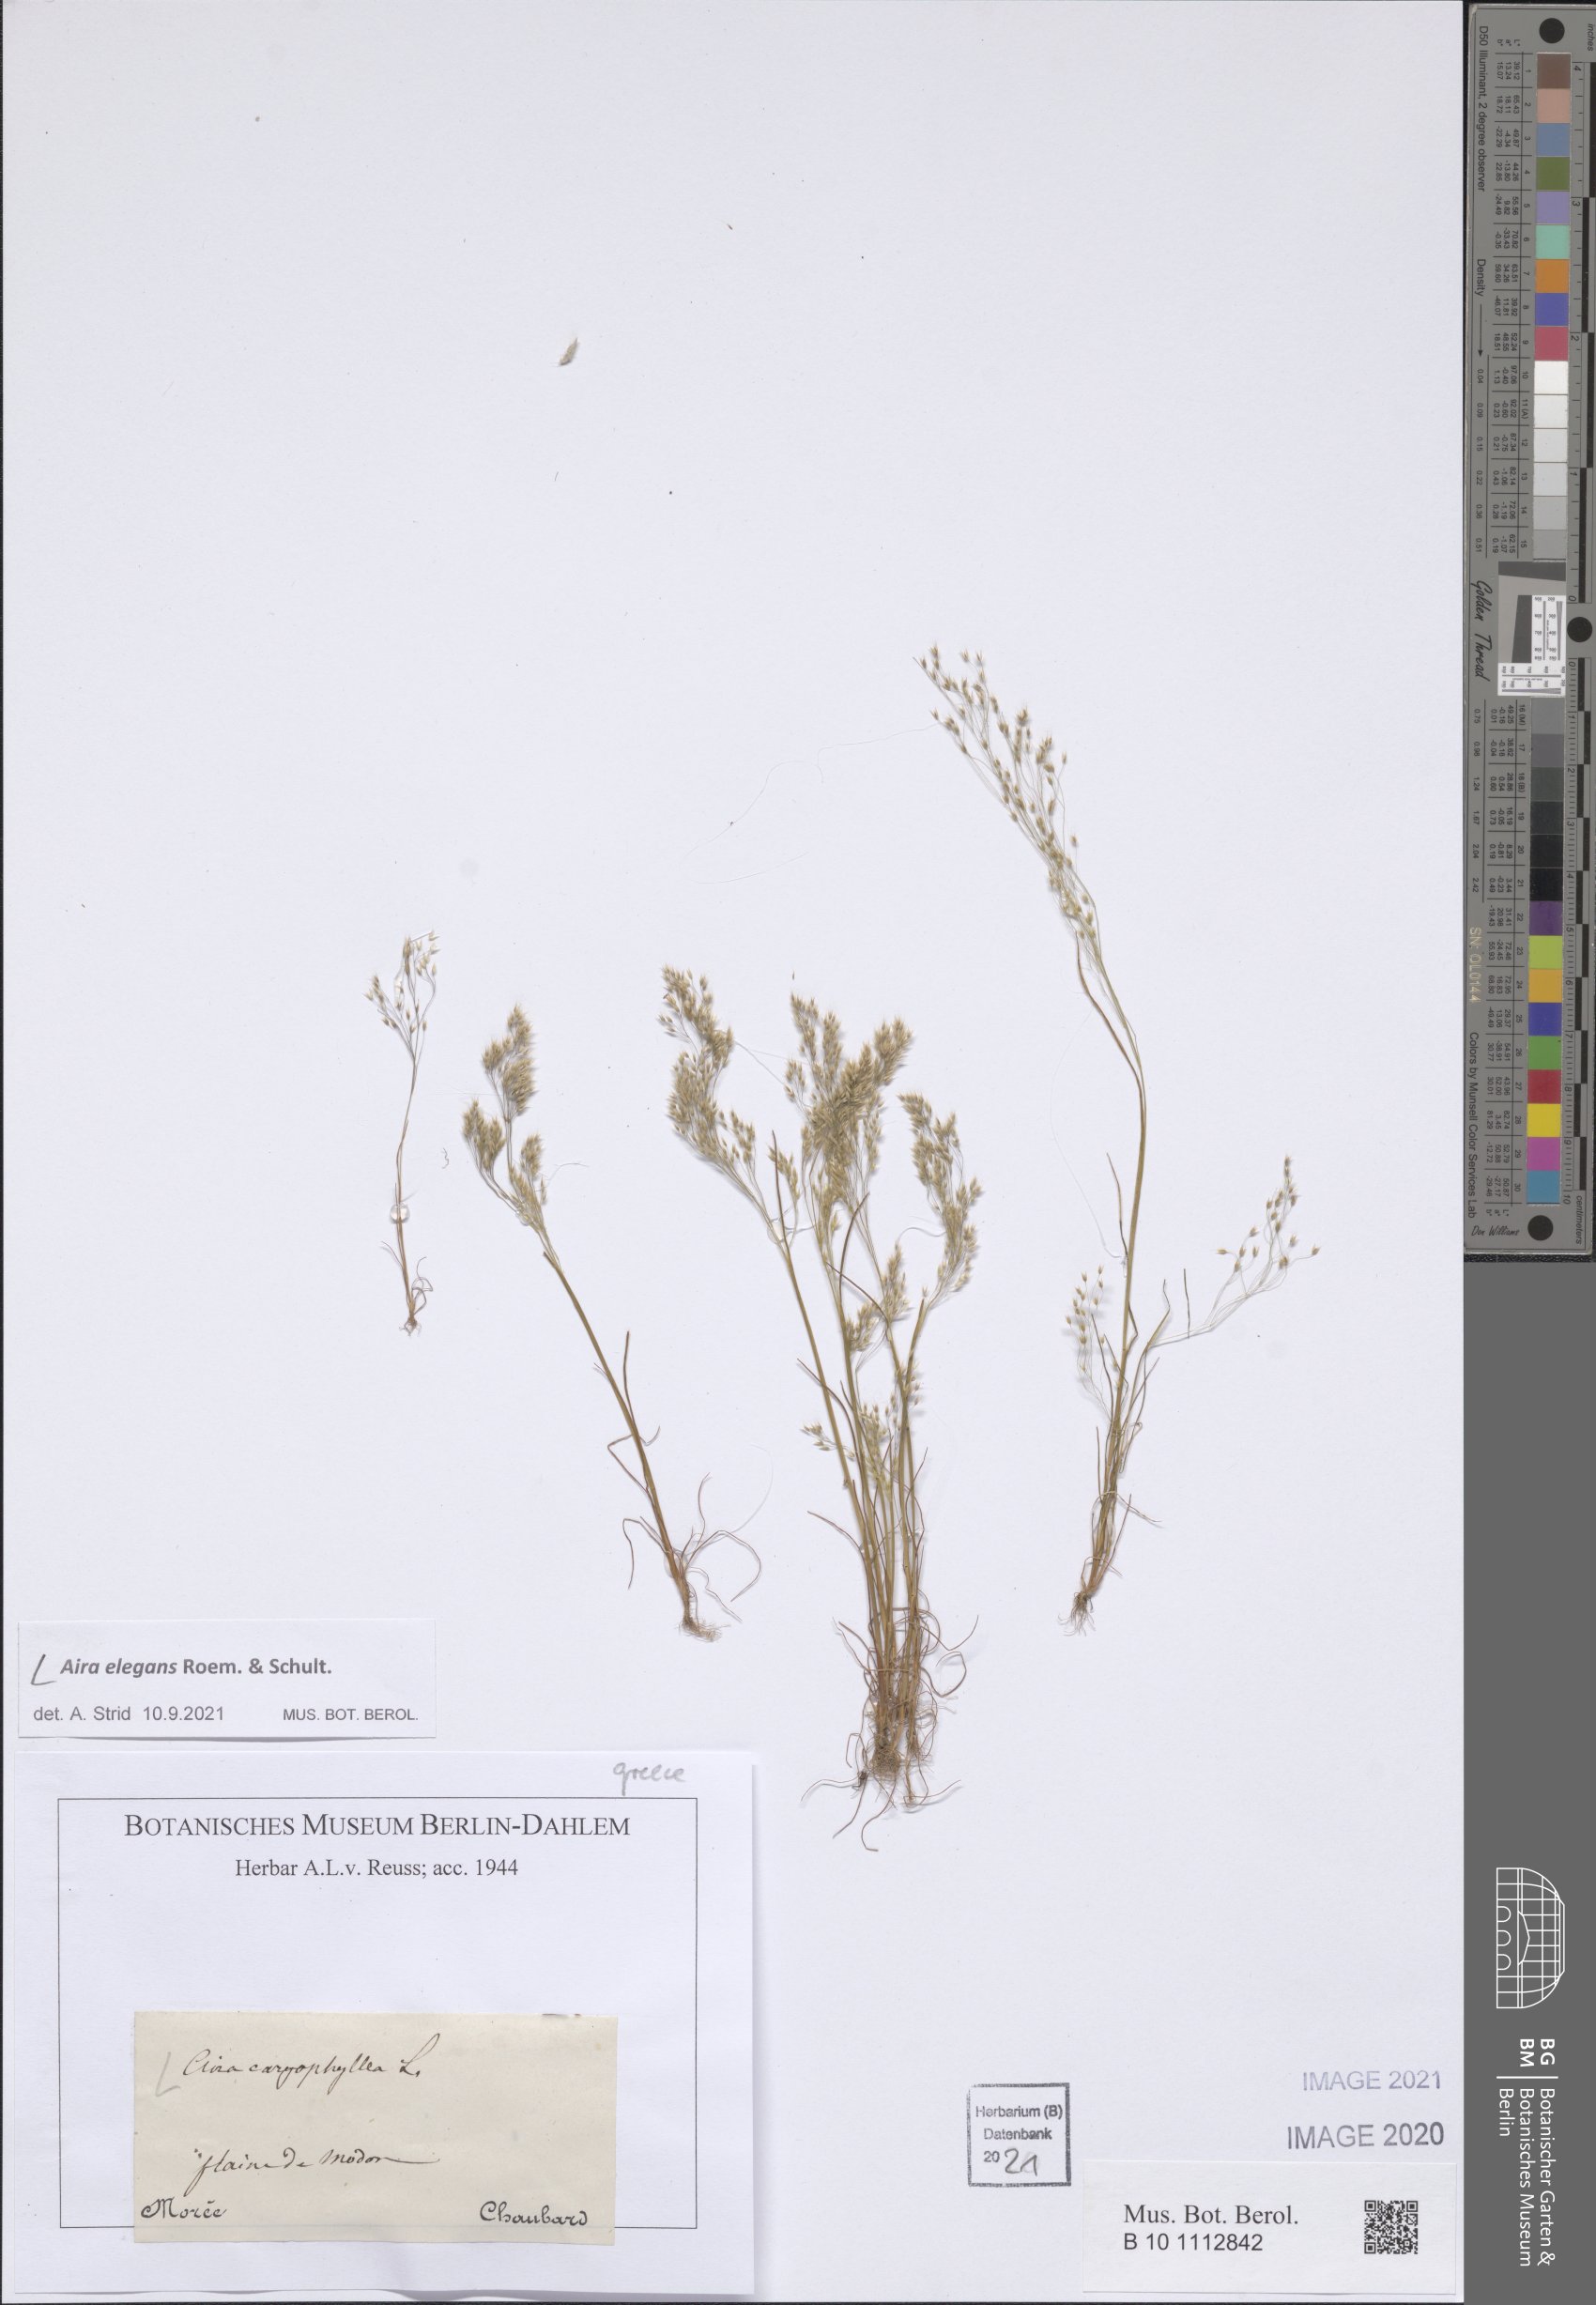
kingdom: Plantae
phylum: Tracheophyta
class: Liliopsida
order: Poales
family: Poaceae
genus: Aira
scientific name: Aira elegans
